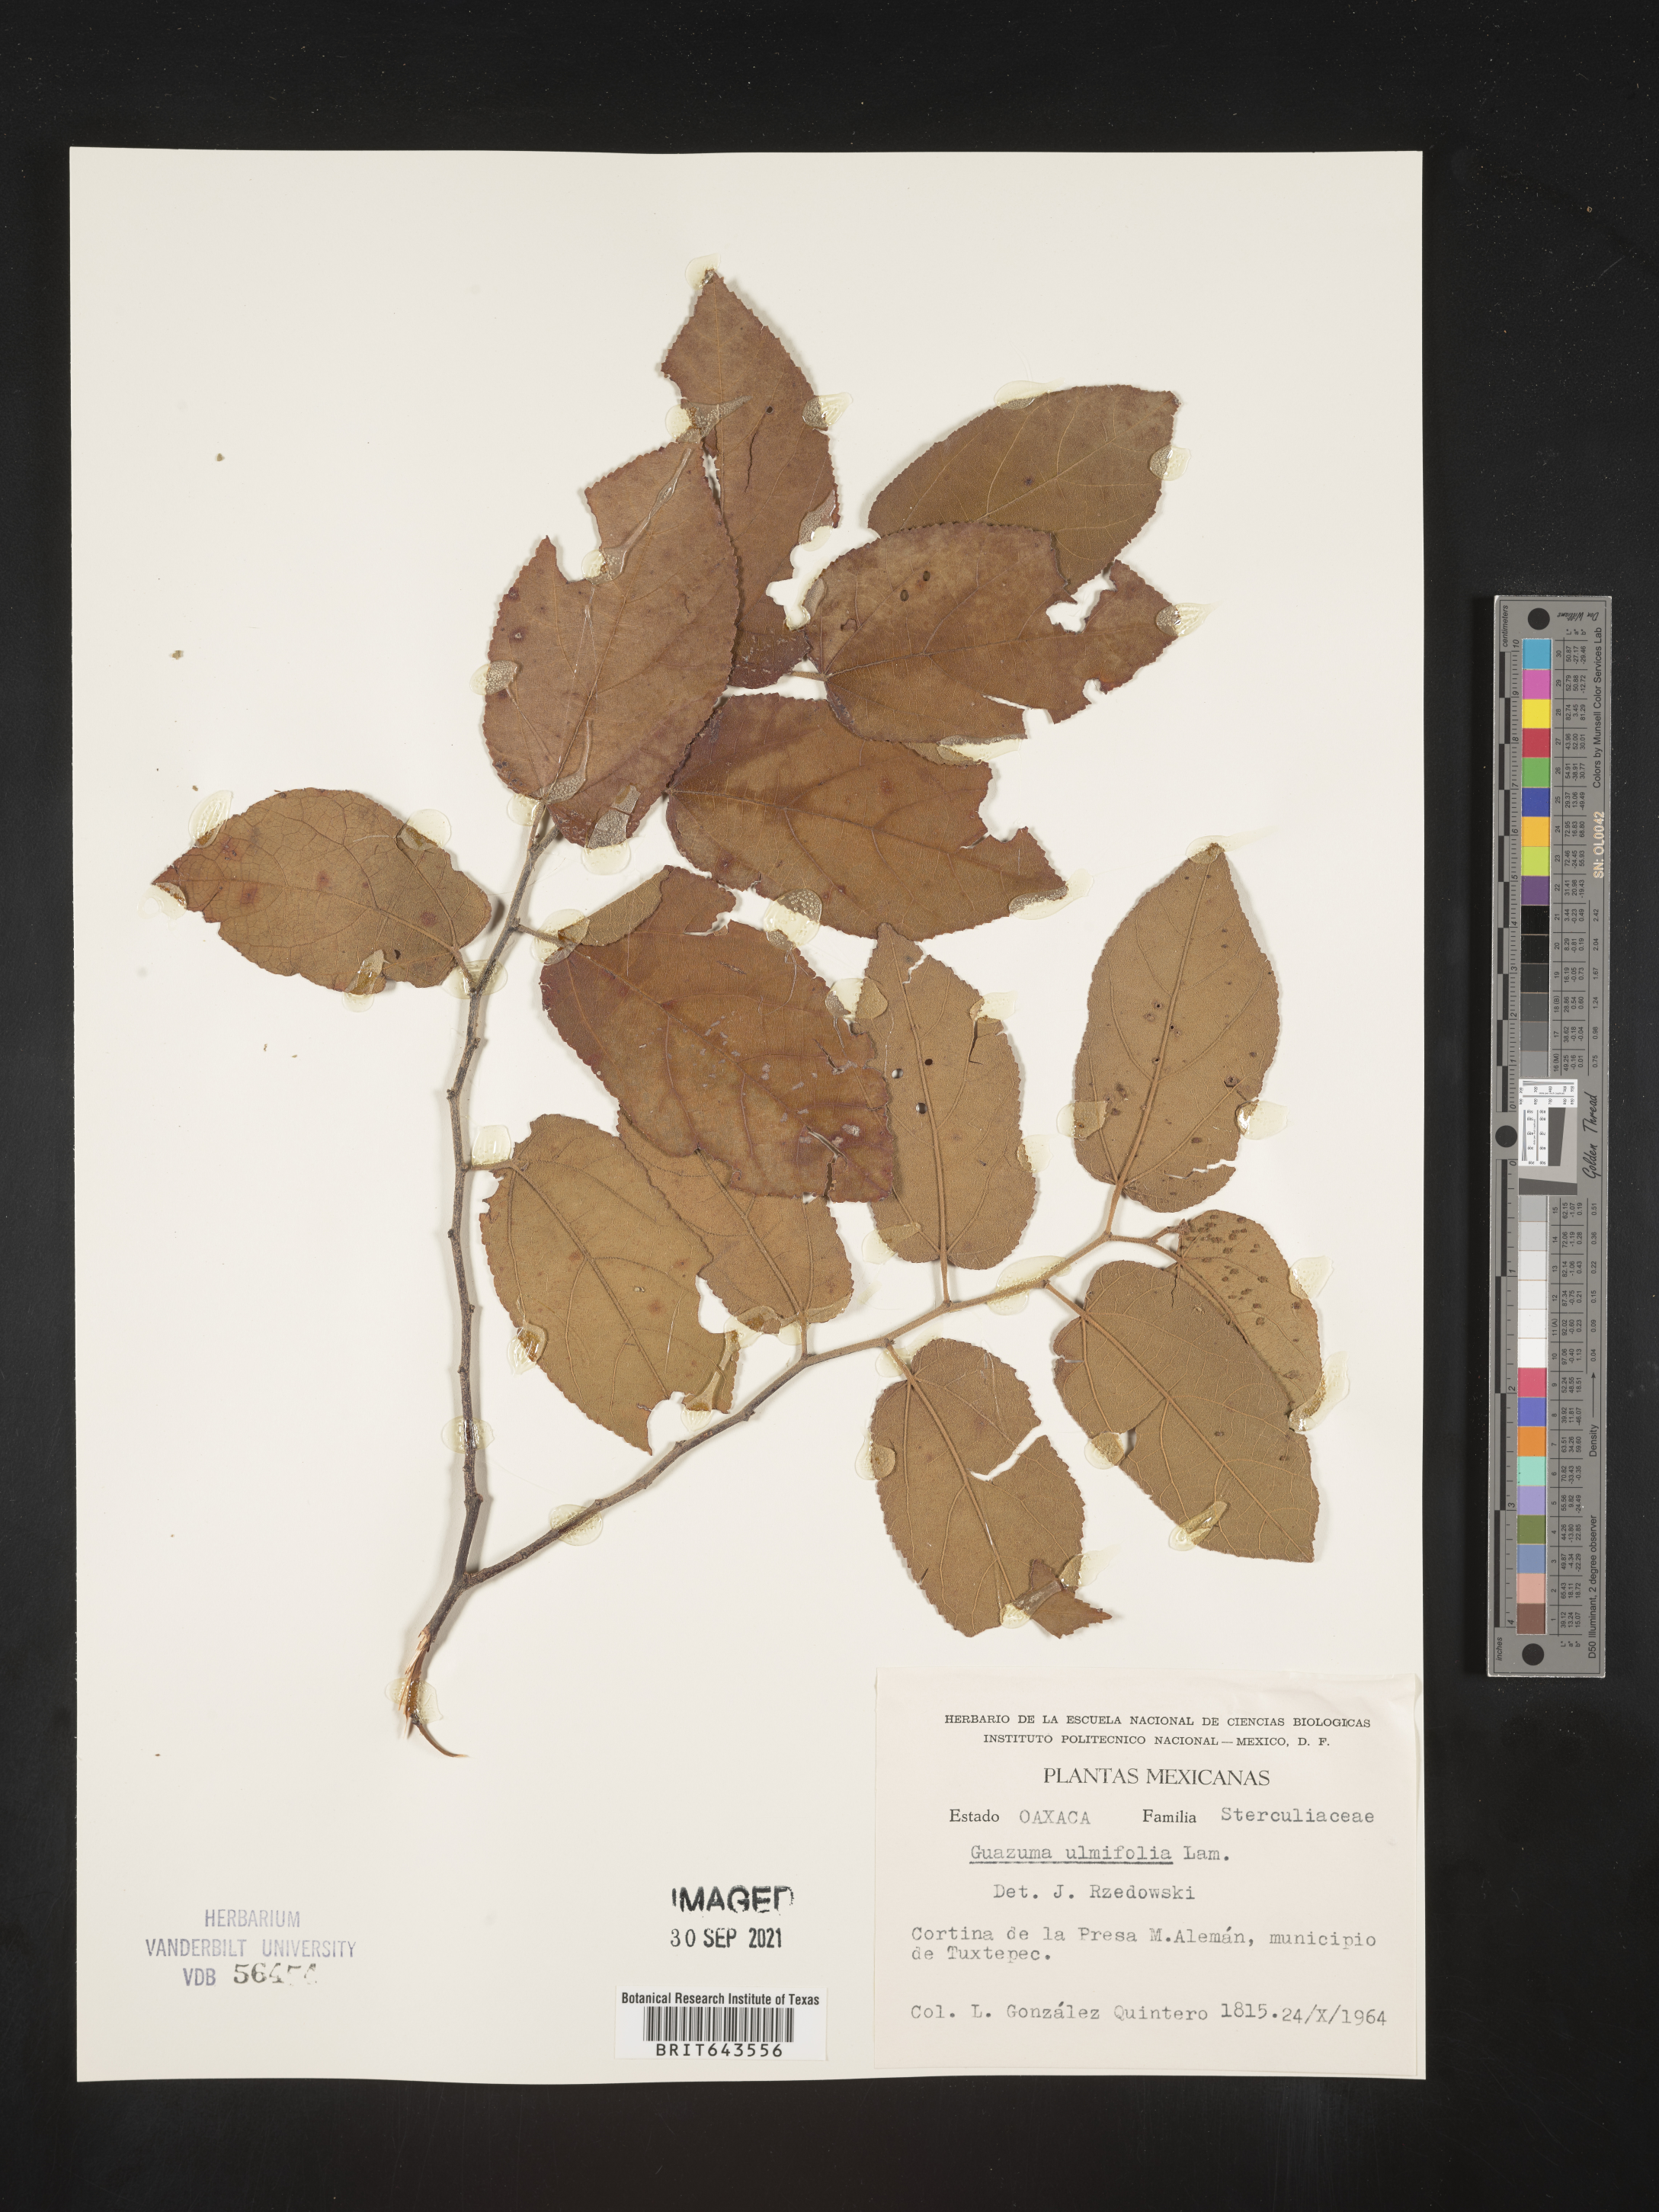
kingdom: Plantae
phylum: Tracheophyta
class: Magnoliopsida
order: Malvales
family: Malvaceae
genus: Guazuma
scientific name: Guazuma
